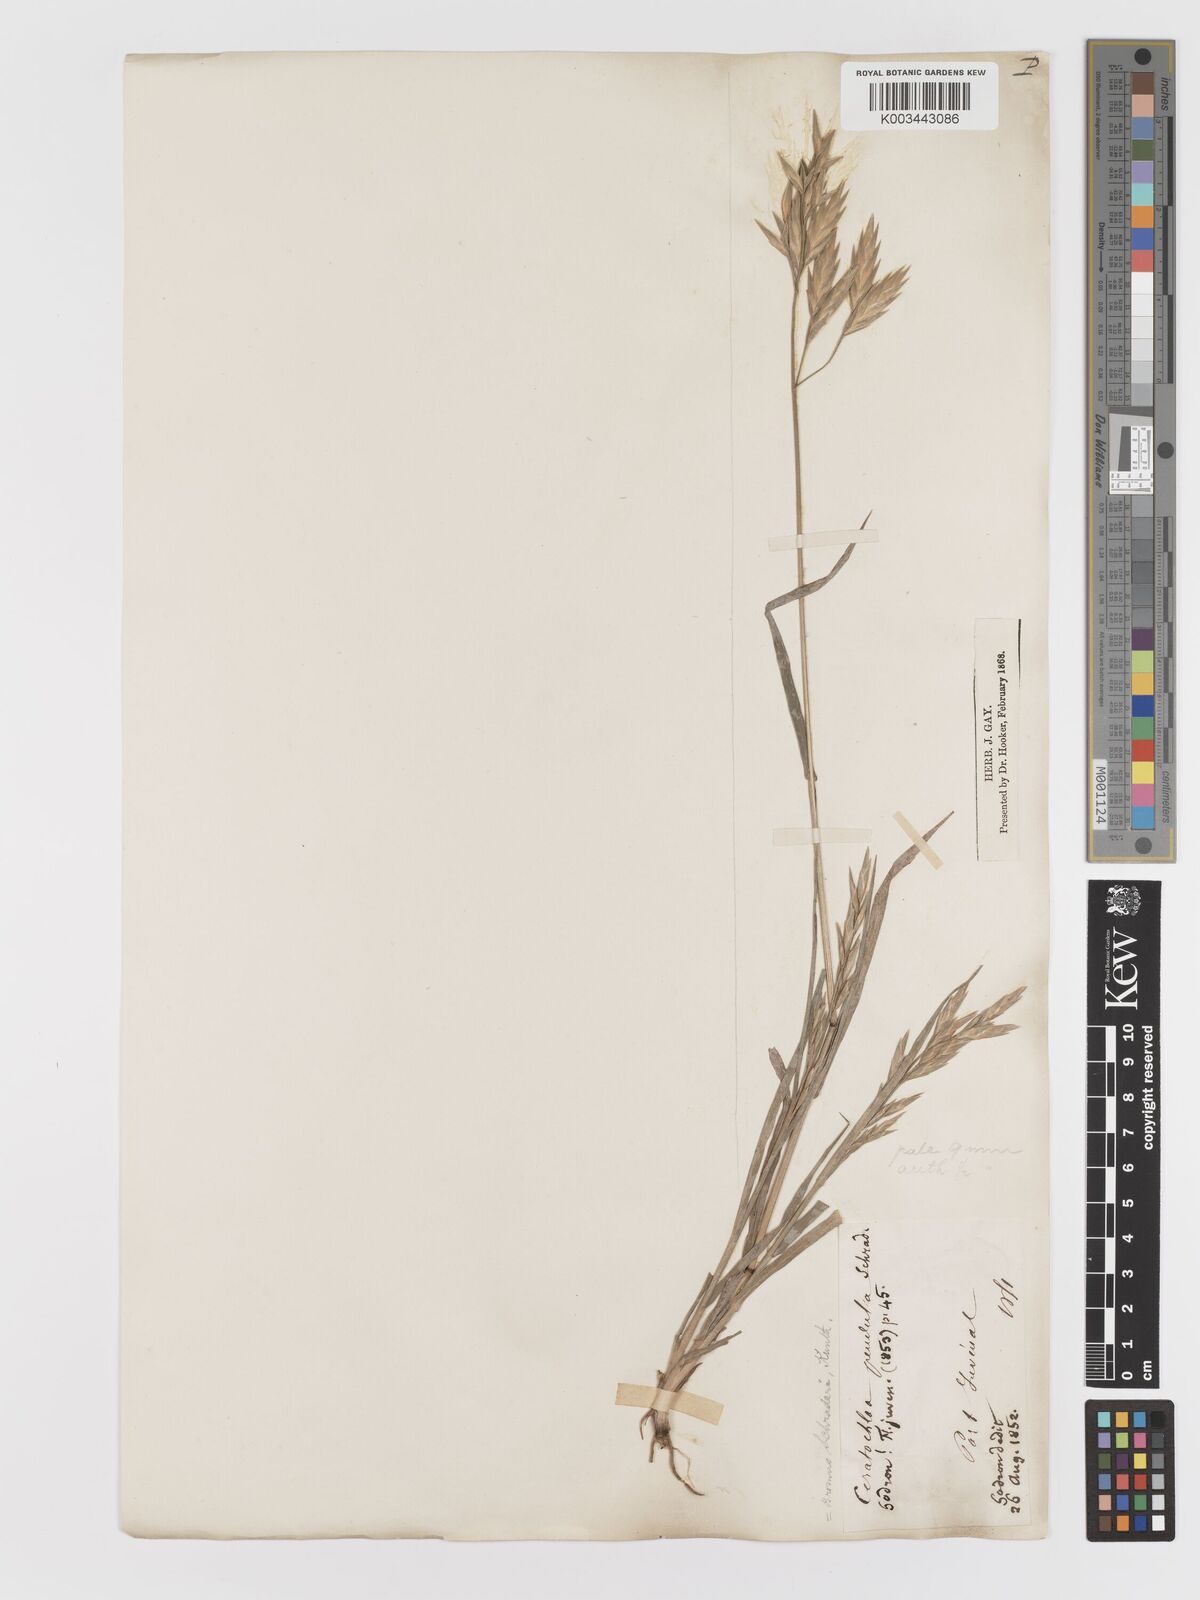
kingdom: Plantae
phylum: Tracheophyta
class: Liliopsida
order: Poales
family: Poaceae
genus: Bromus
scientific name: Bromus catharticus
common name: Rescuegrass
